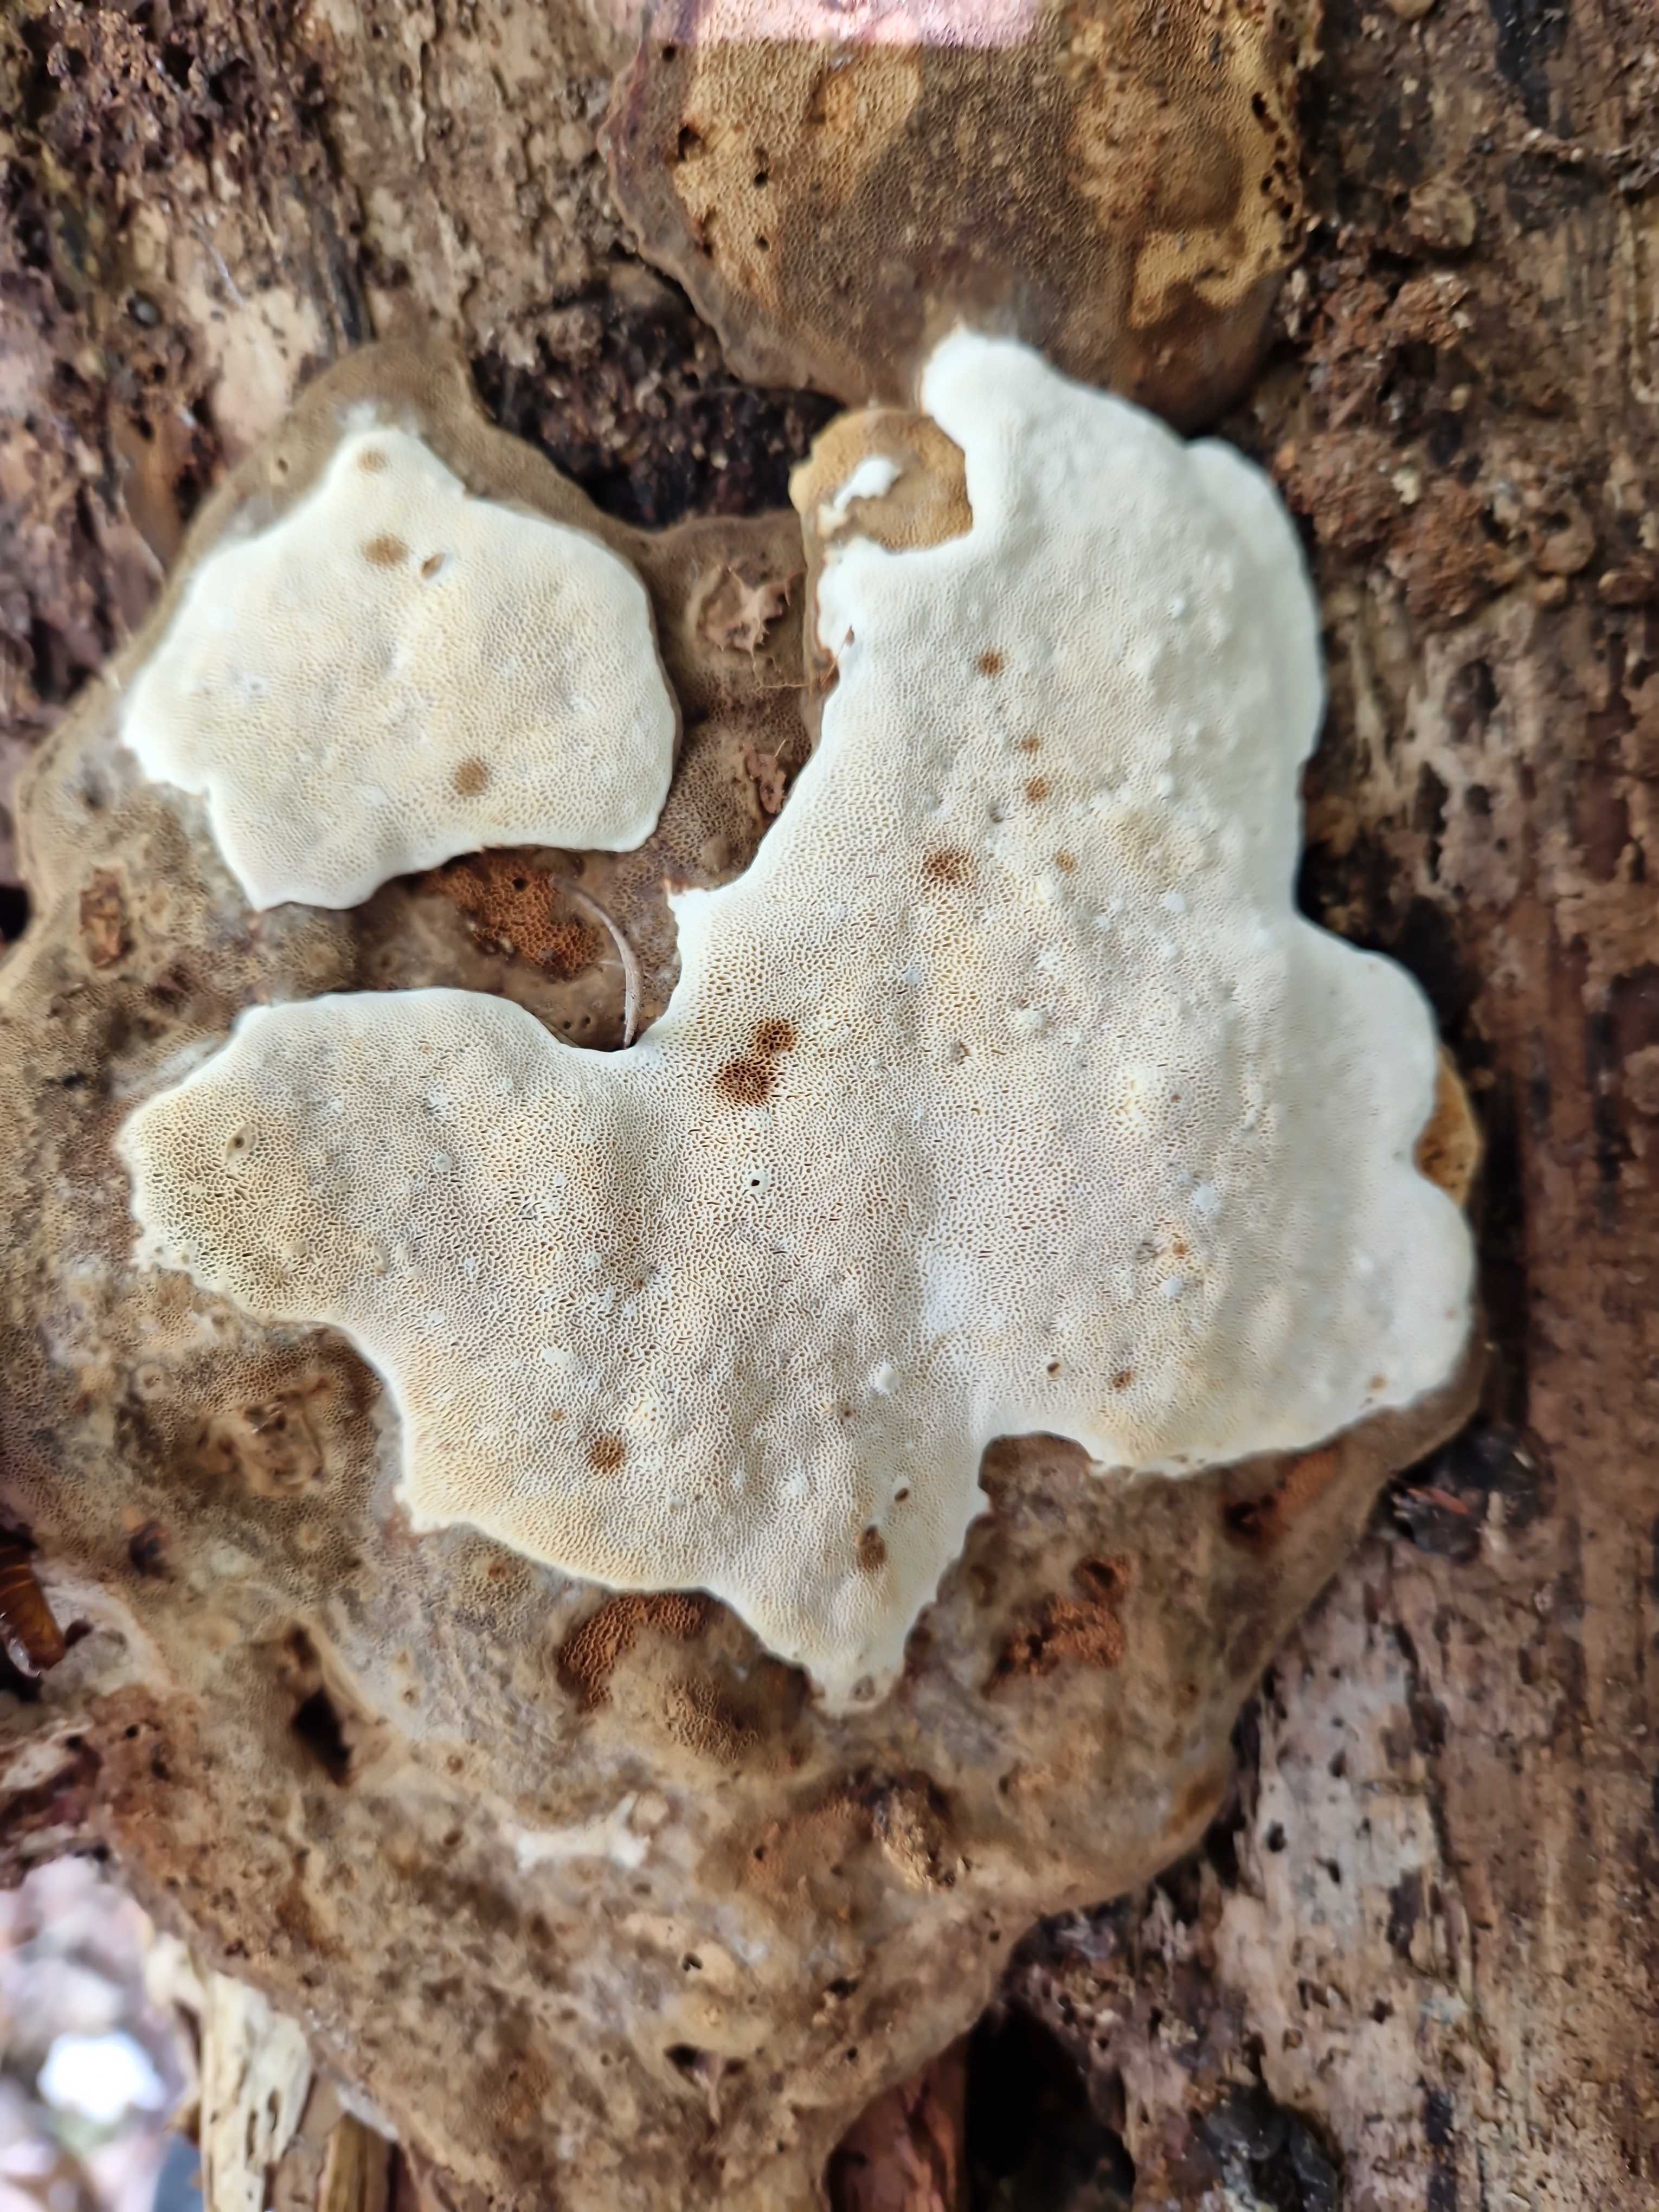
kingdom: Fungi
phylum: Basidiomycota
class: Agaricomycetes
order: Russulales
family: Bondarzewiaceae
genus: Heterobasidion
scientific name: Heterobasidion
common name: rodfordærver
